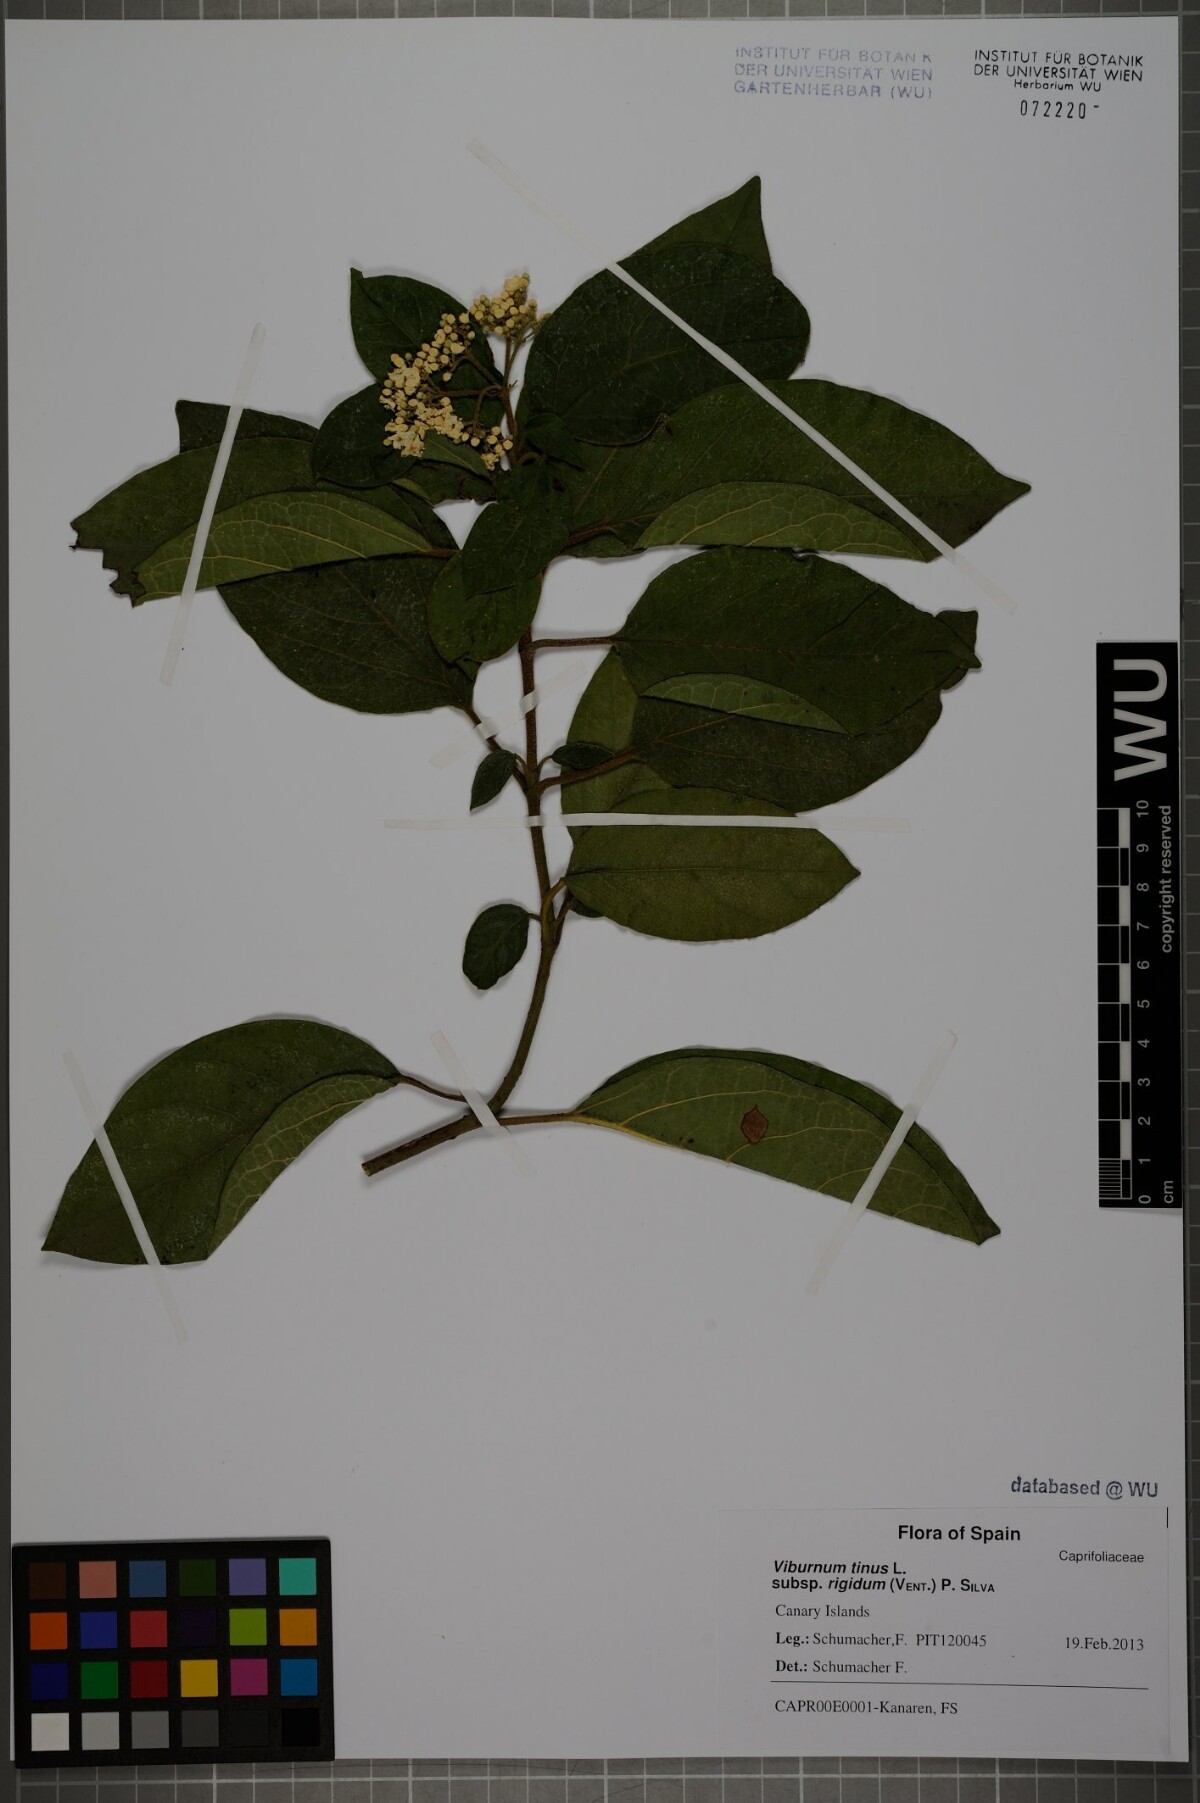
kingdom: Plantae
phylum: Tracheophyta
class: Magnoliopsida
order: Dipsacales
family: Viburnaceae
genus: Viburnum
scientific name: Viburnum rugosum
